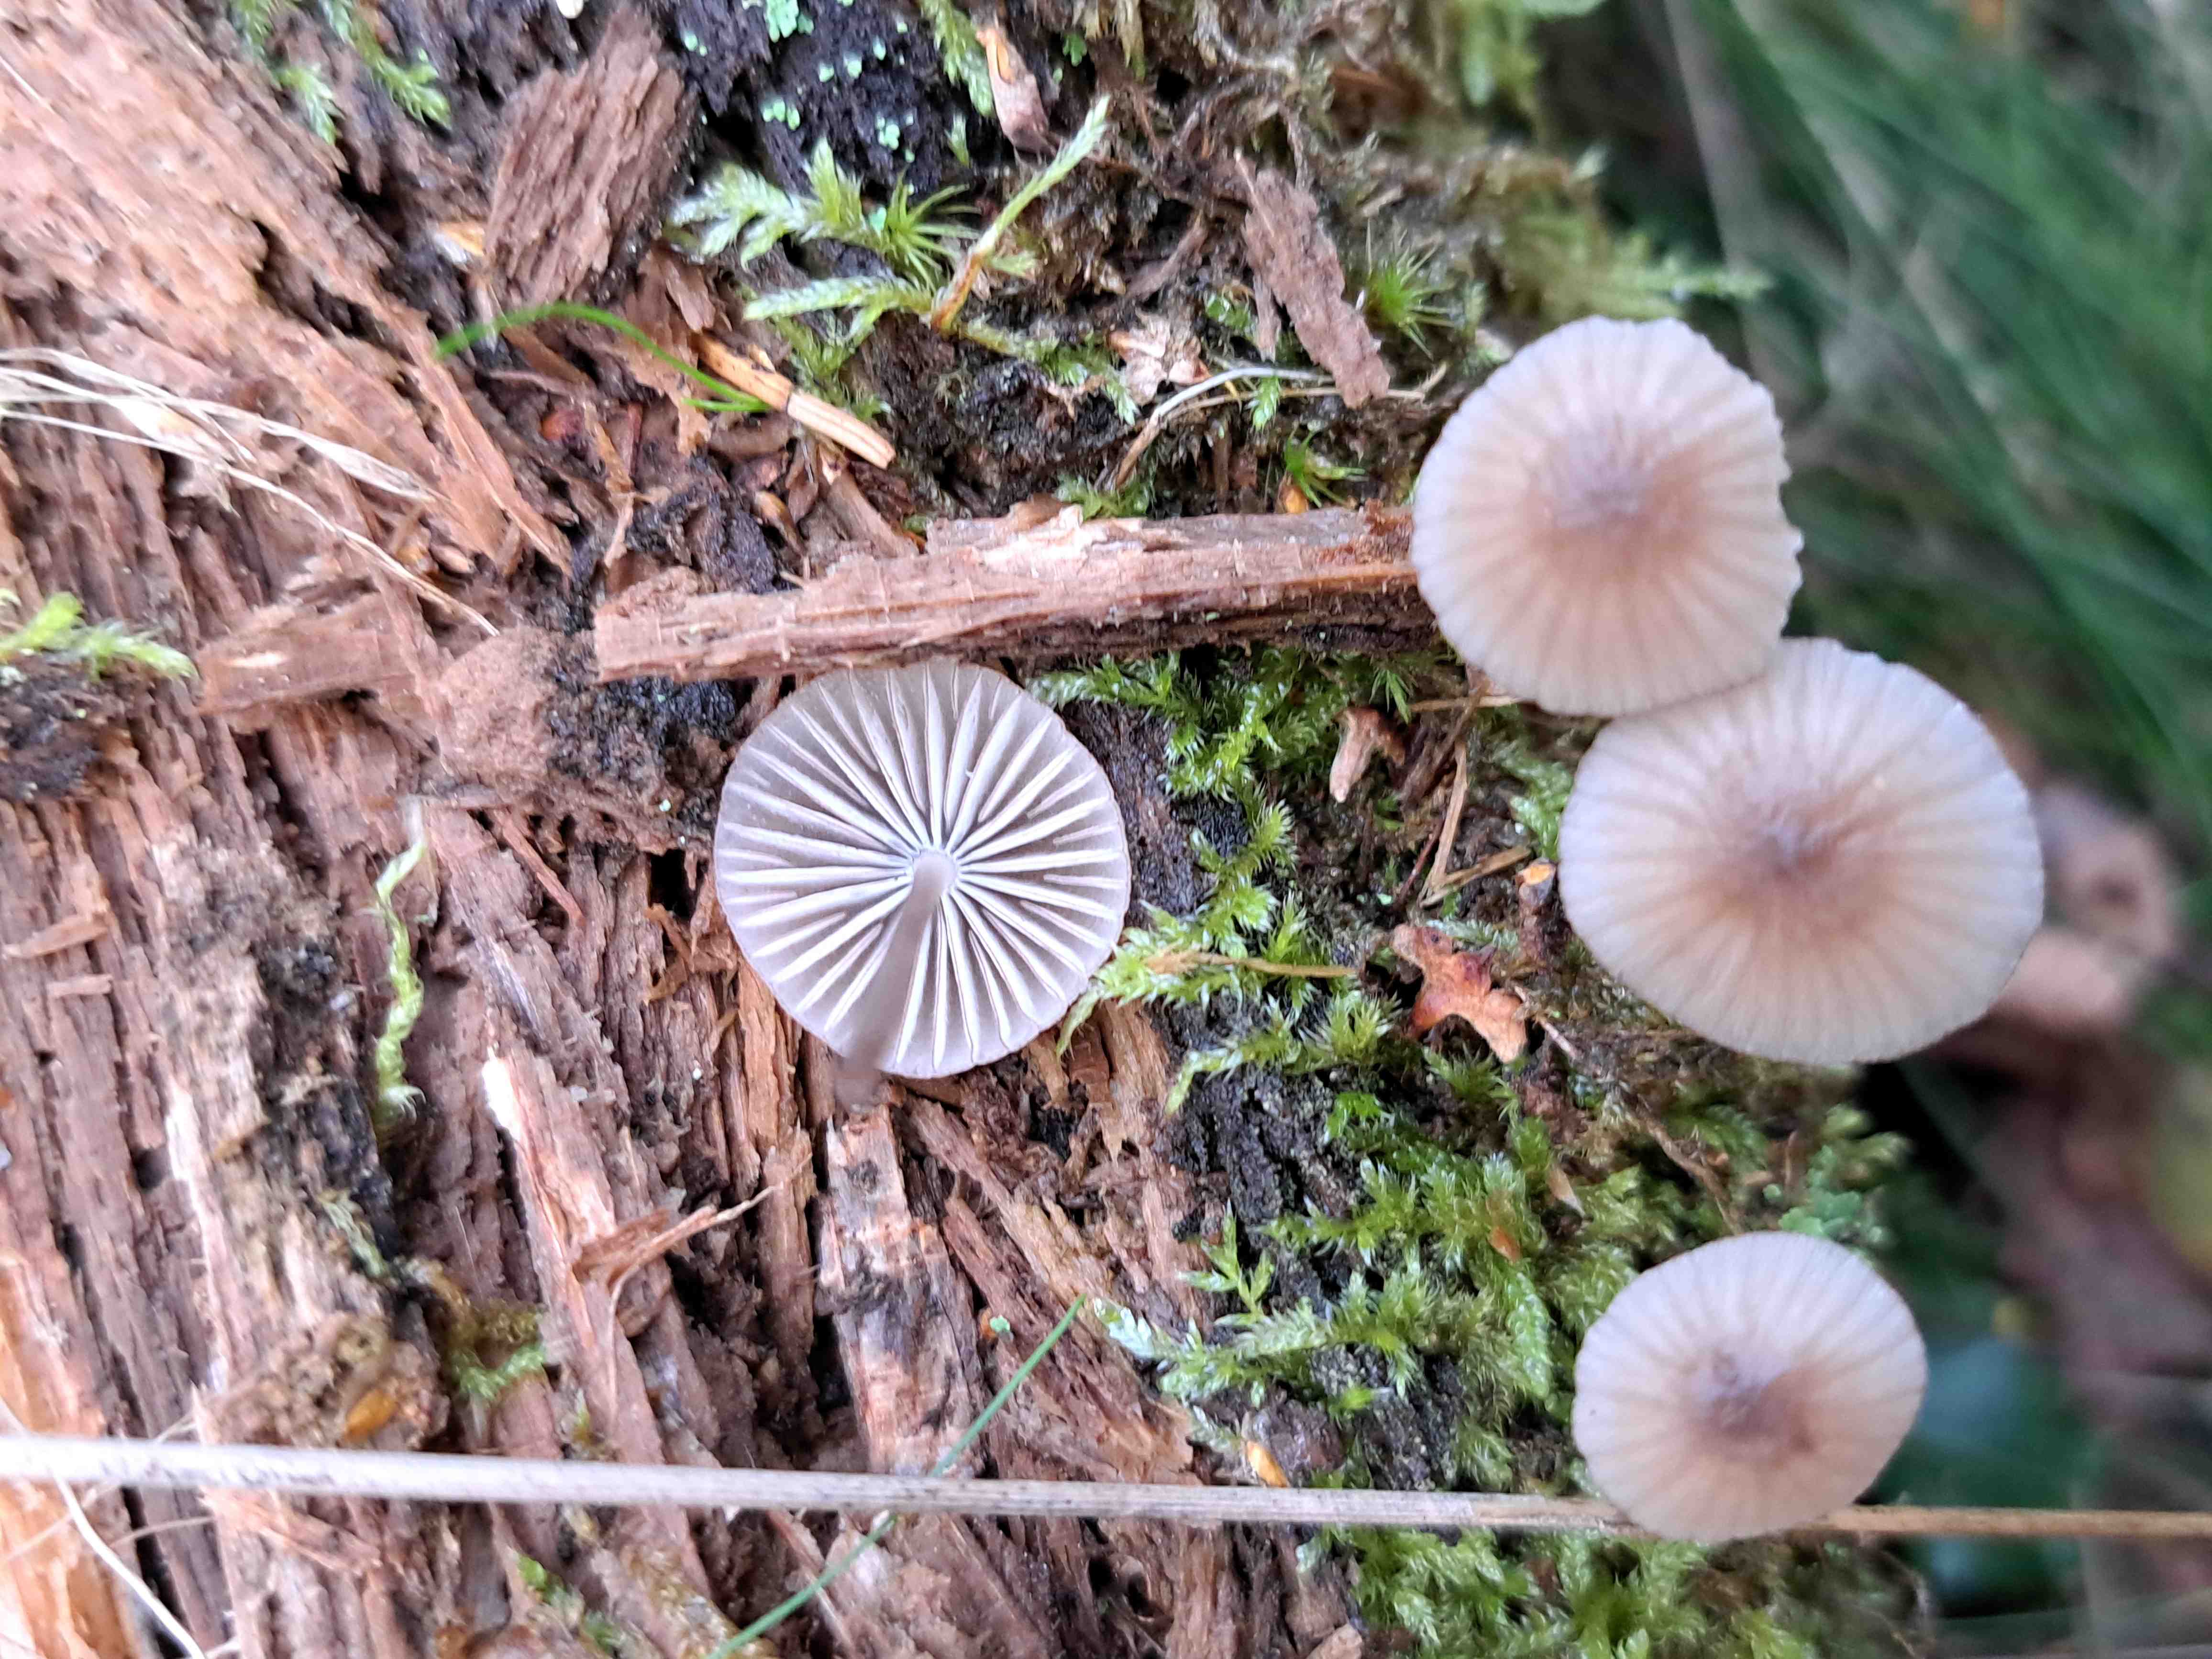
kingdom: Fungi
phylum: Basidiomycota
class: Agaricomycetes
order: Agaricales
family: Mycenaceae
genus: Mycena
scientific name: Mycena metata
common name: rødlig huesvamp
